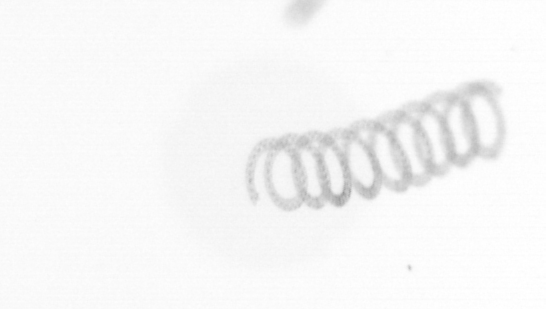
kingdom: Chromista
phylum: Ochrophyta
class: Bacillariophyceae
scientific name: Bacillariophyceae
